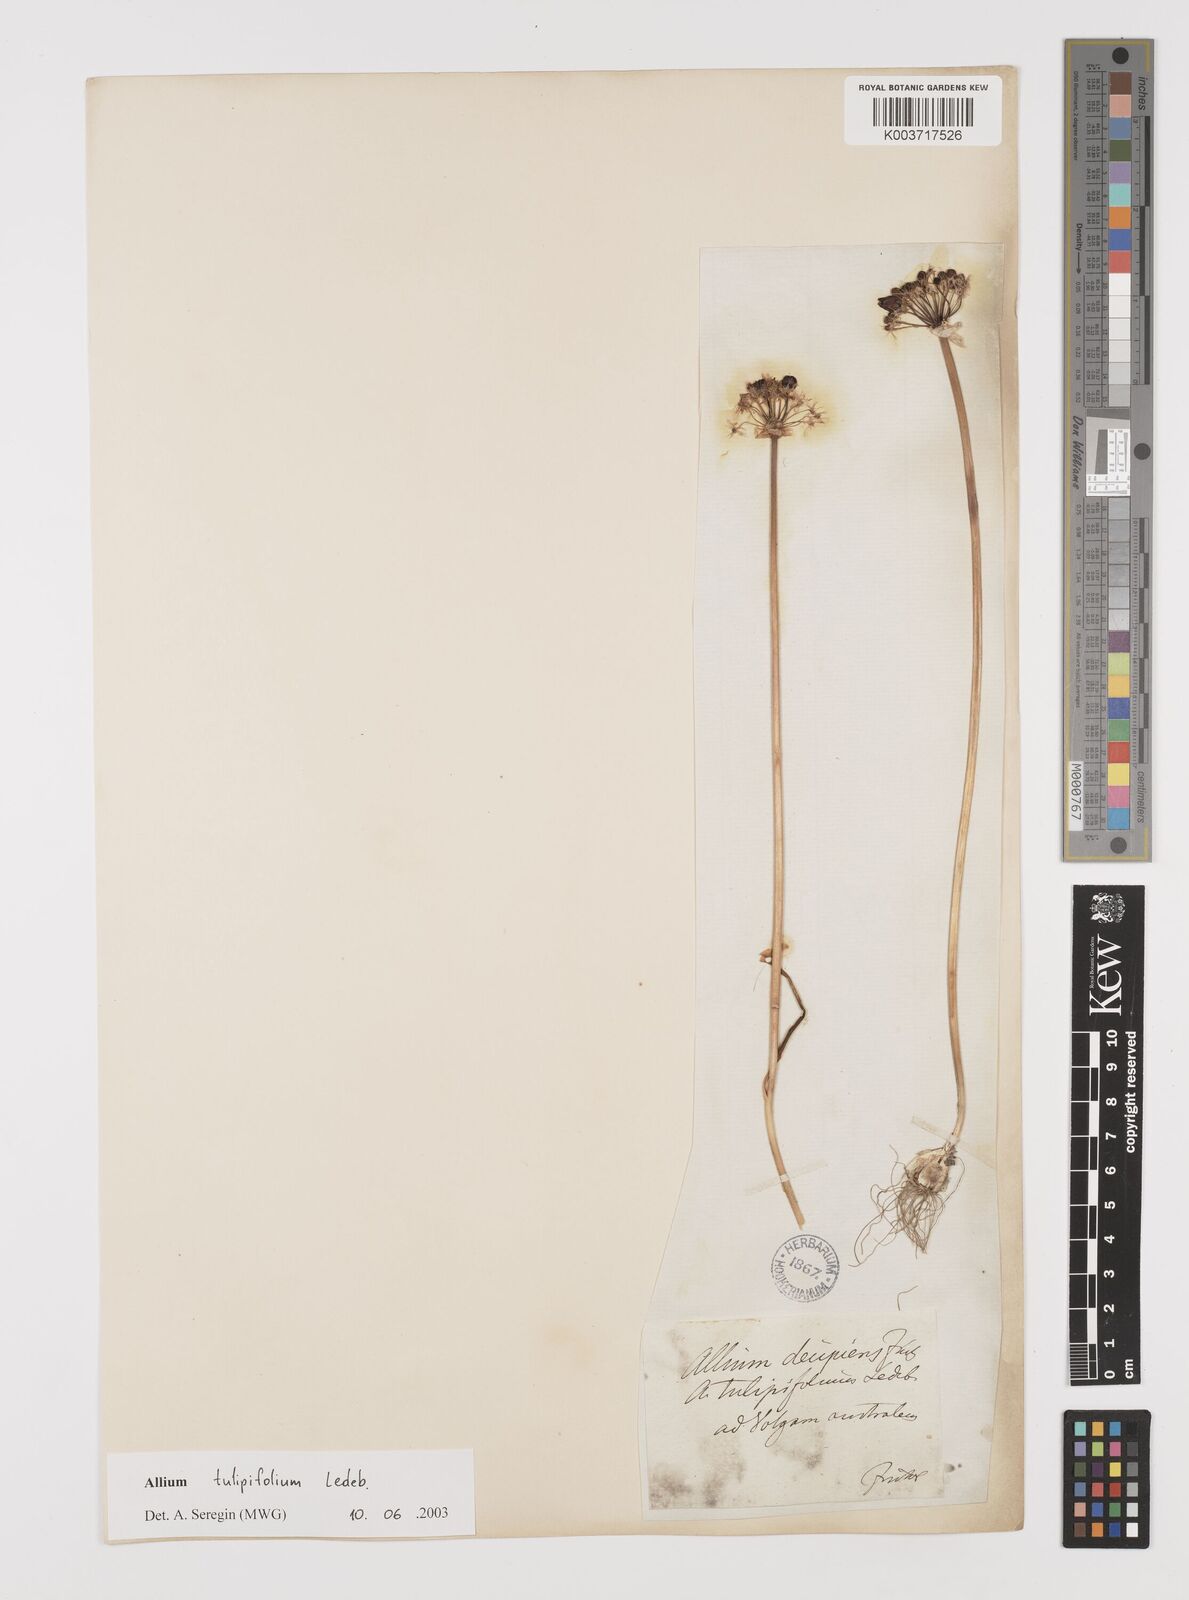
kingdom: Plantae
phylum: Tracheophyta
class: Liliopsida
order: Asparagales
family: Amaryllidaceae
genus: Allium
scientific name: Allium tulipifolium
